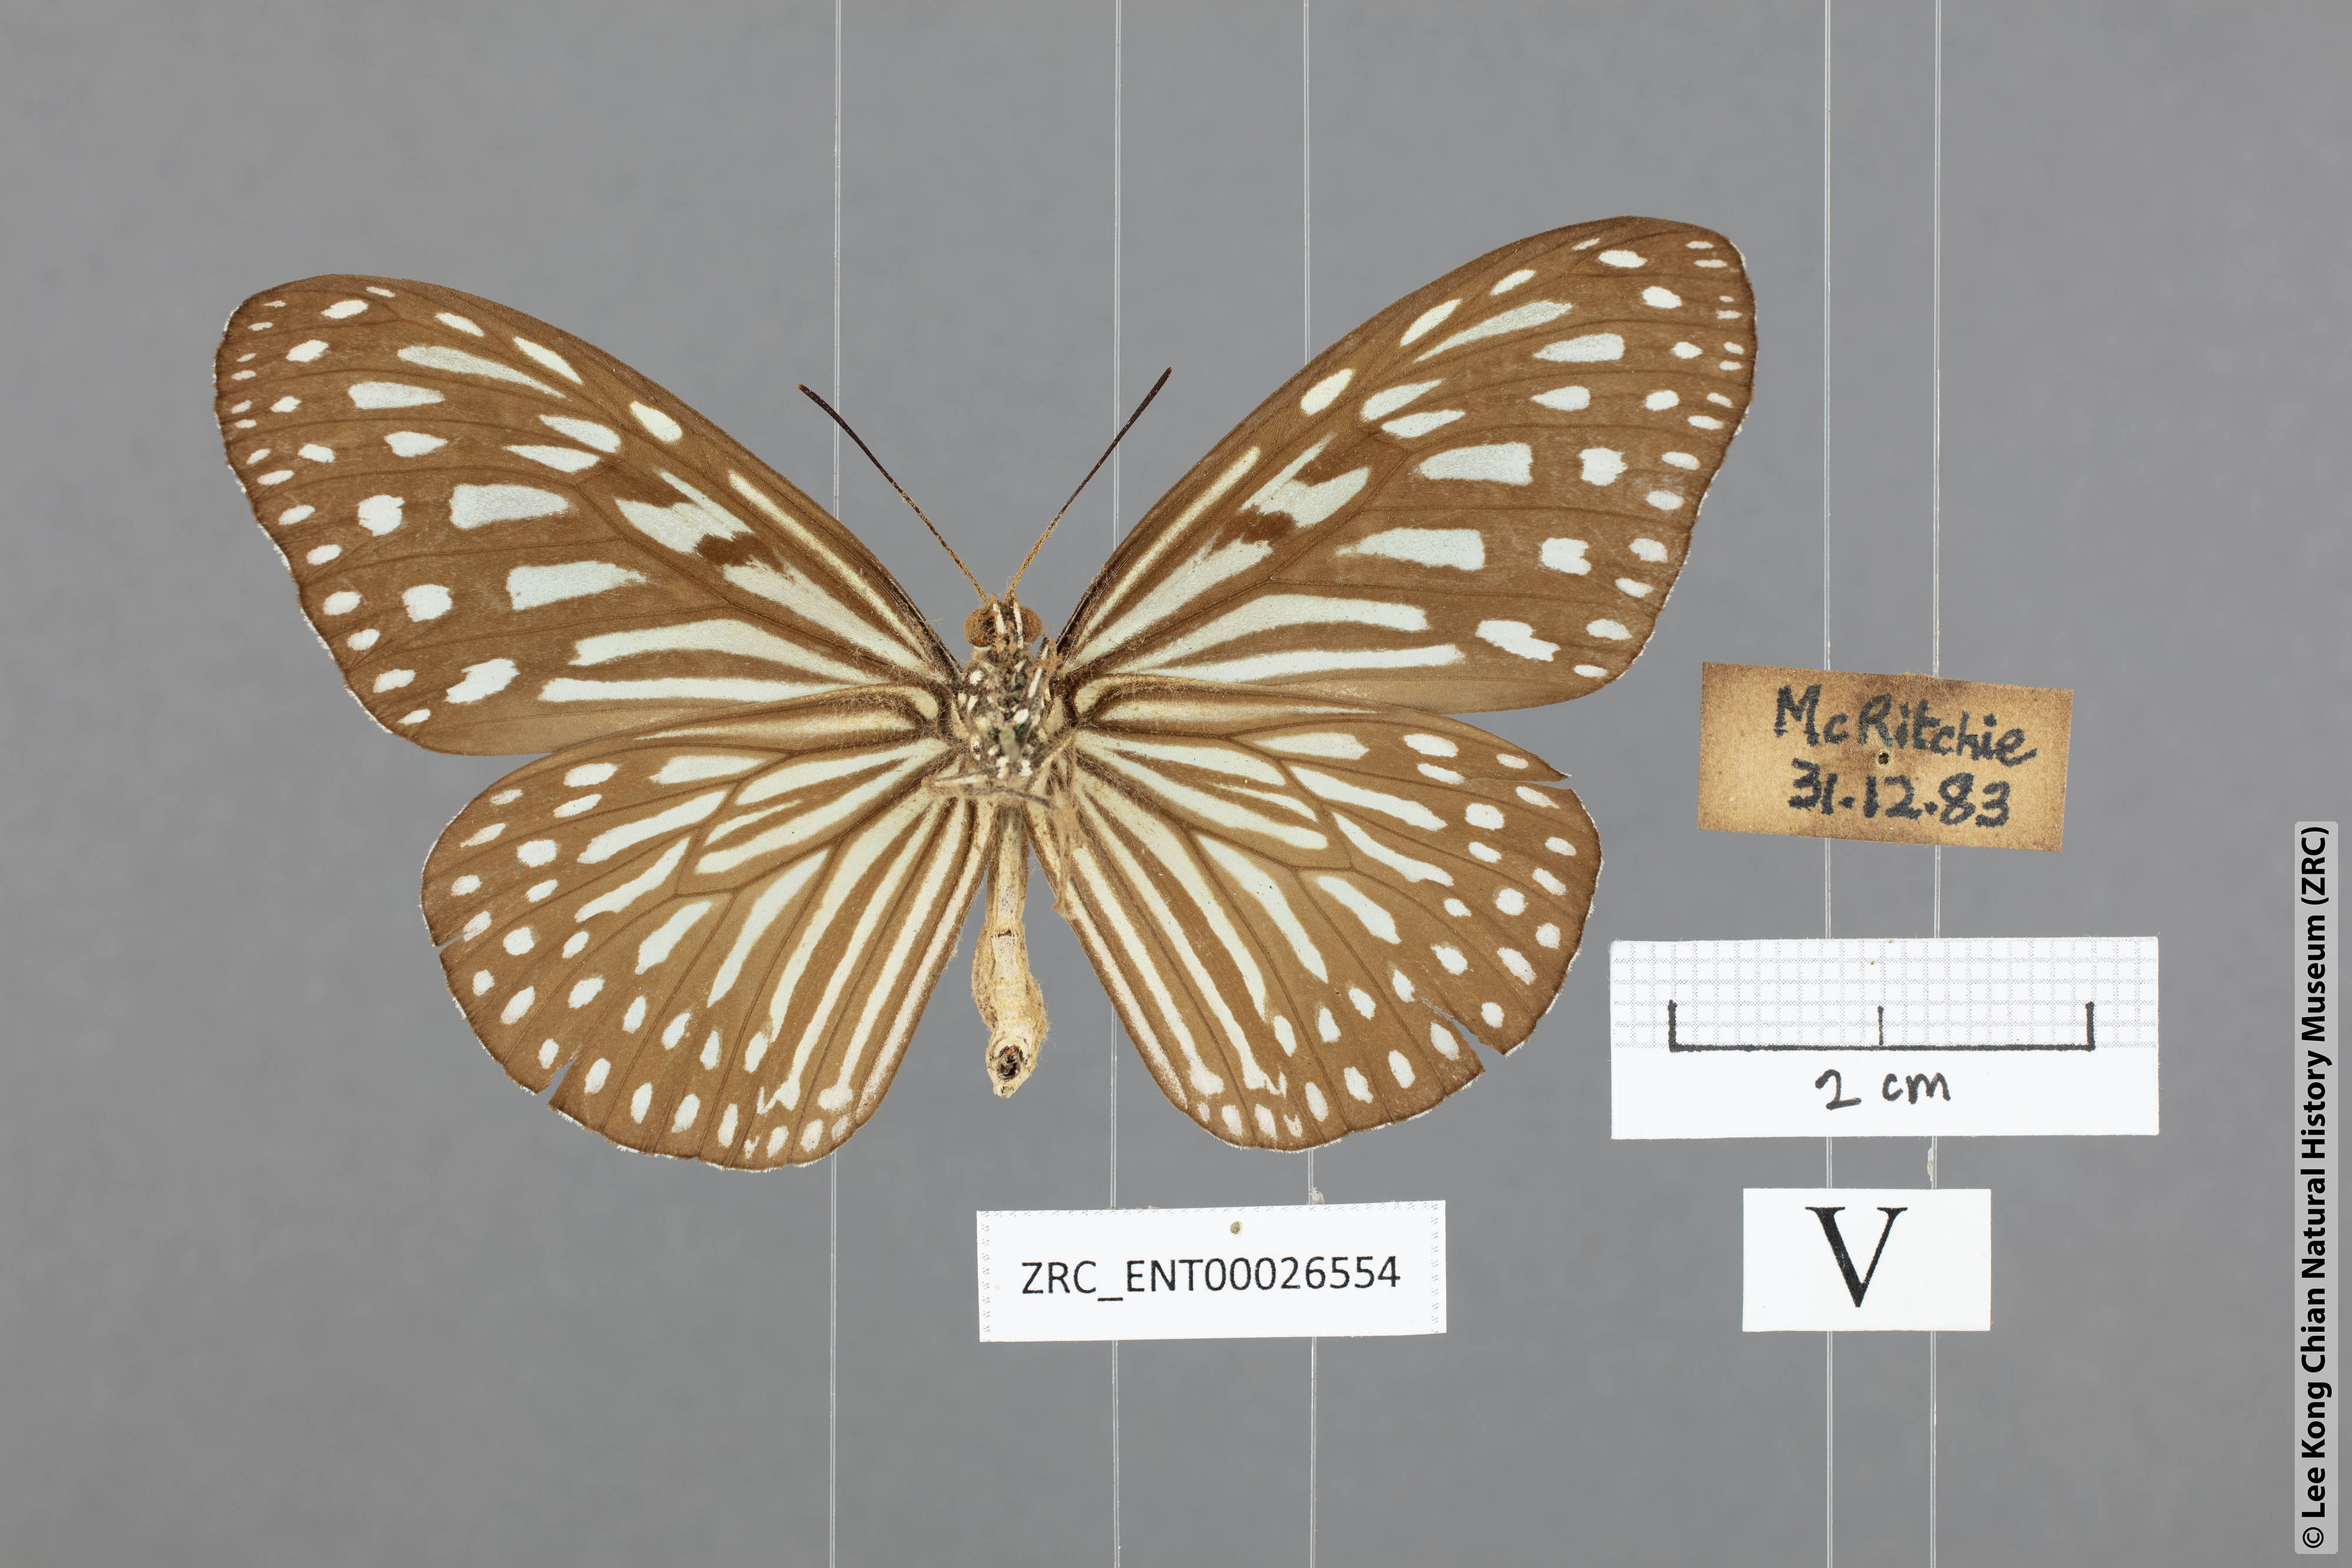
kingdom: Animalia
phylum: Arthropoda
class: Insecta
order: Lepidoptera
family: Nymphalidae
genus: Ideopsis
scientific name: Ideopsis vulgaris
